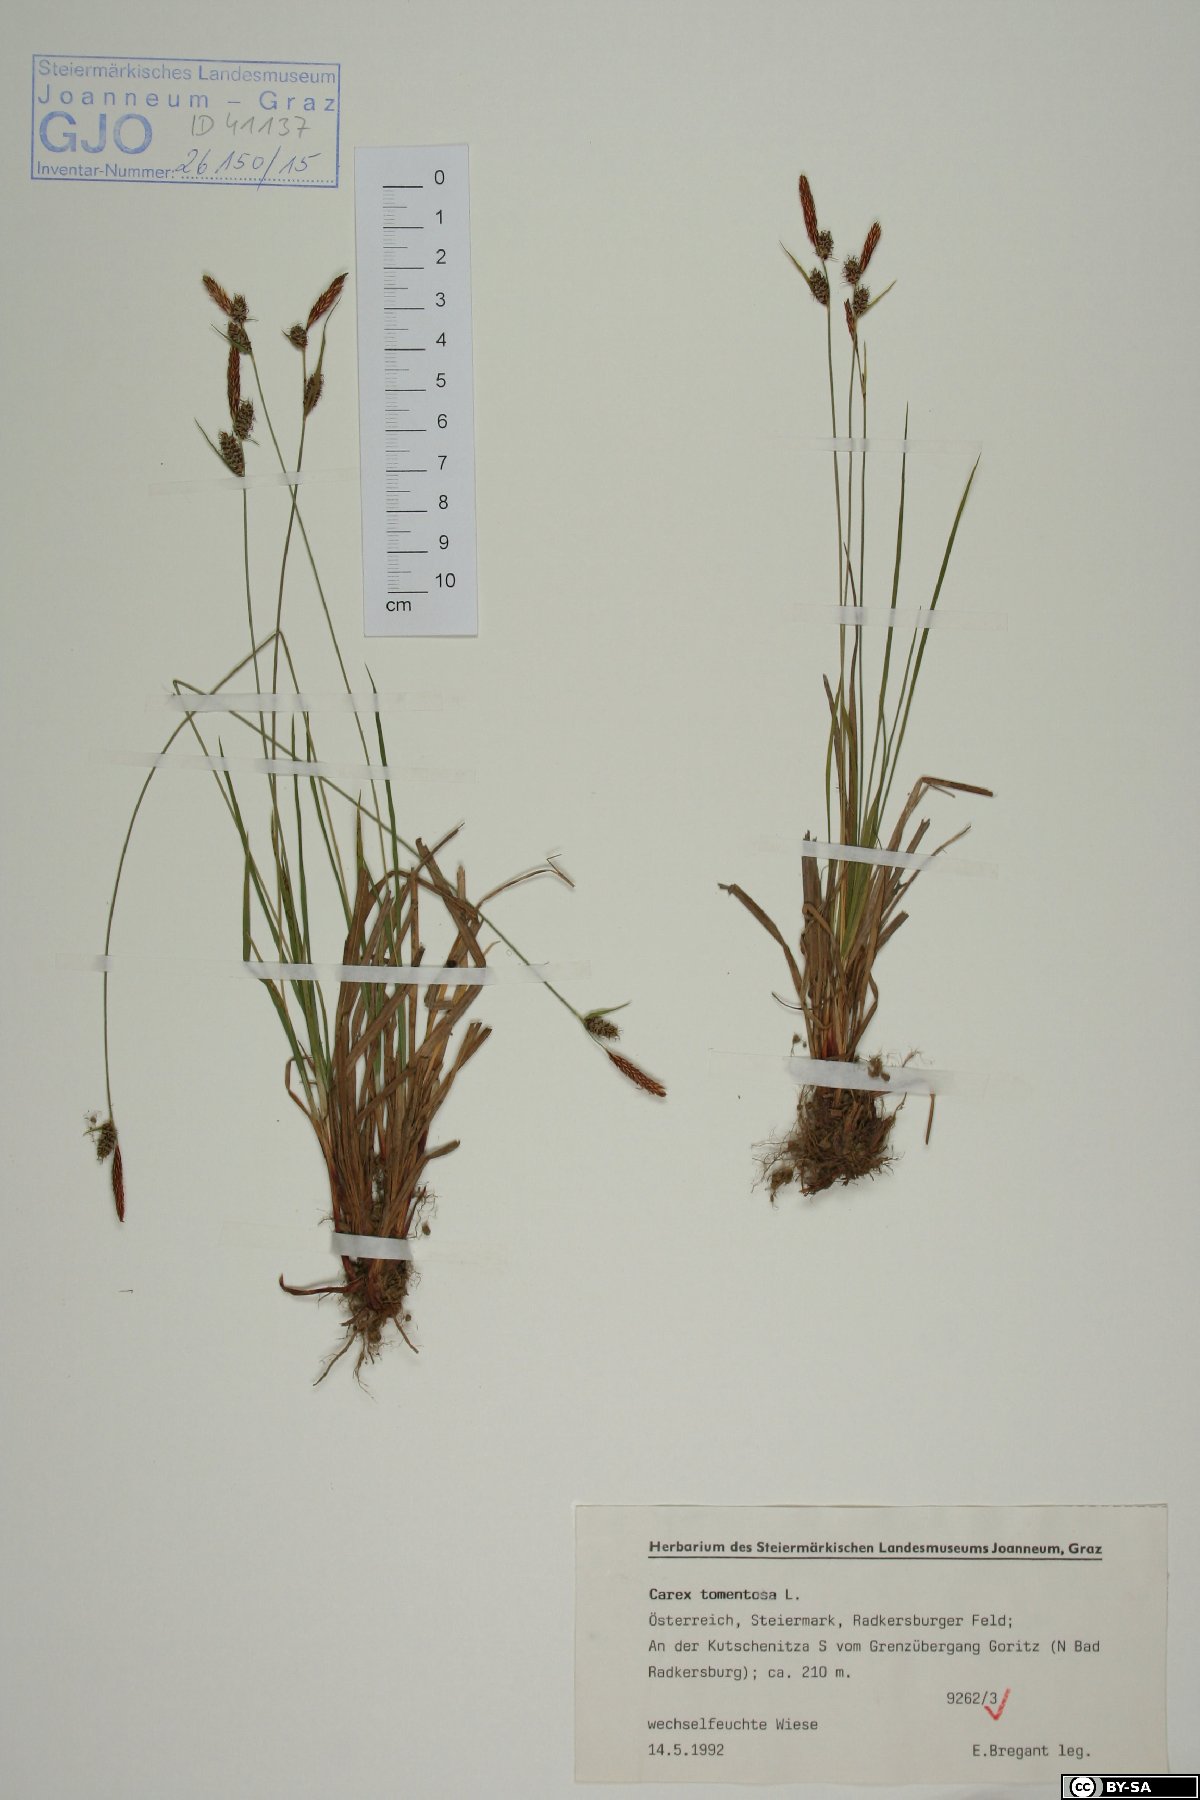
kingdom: Plantae
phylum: Tracheophyta
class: Liliopsida
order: Poales
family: Cyperaceae
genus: Carex
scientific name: Carex tomentosa
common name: Downy-fruited sedge
